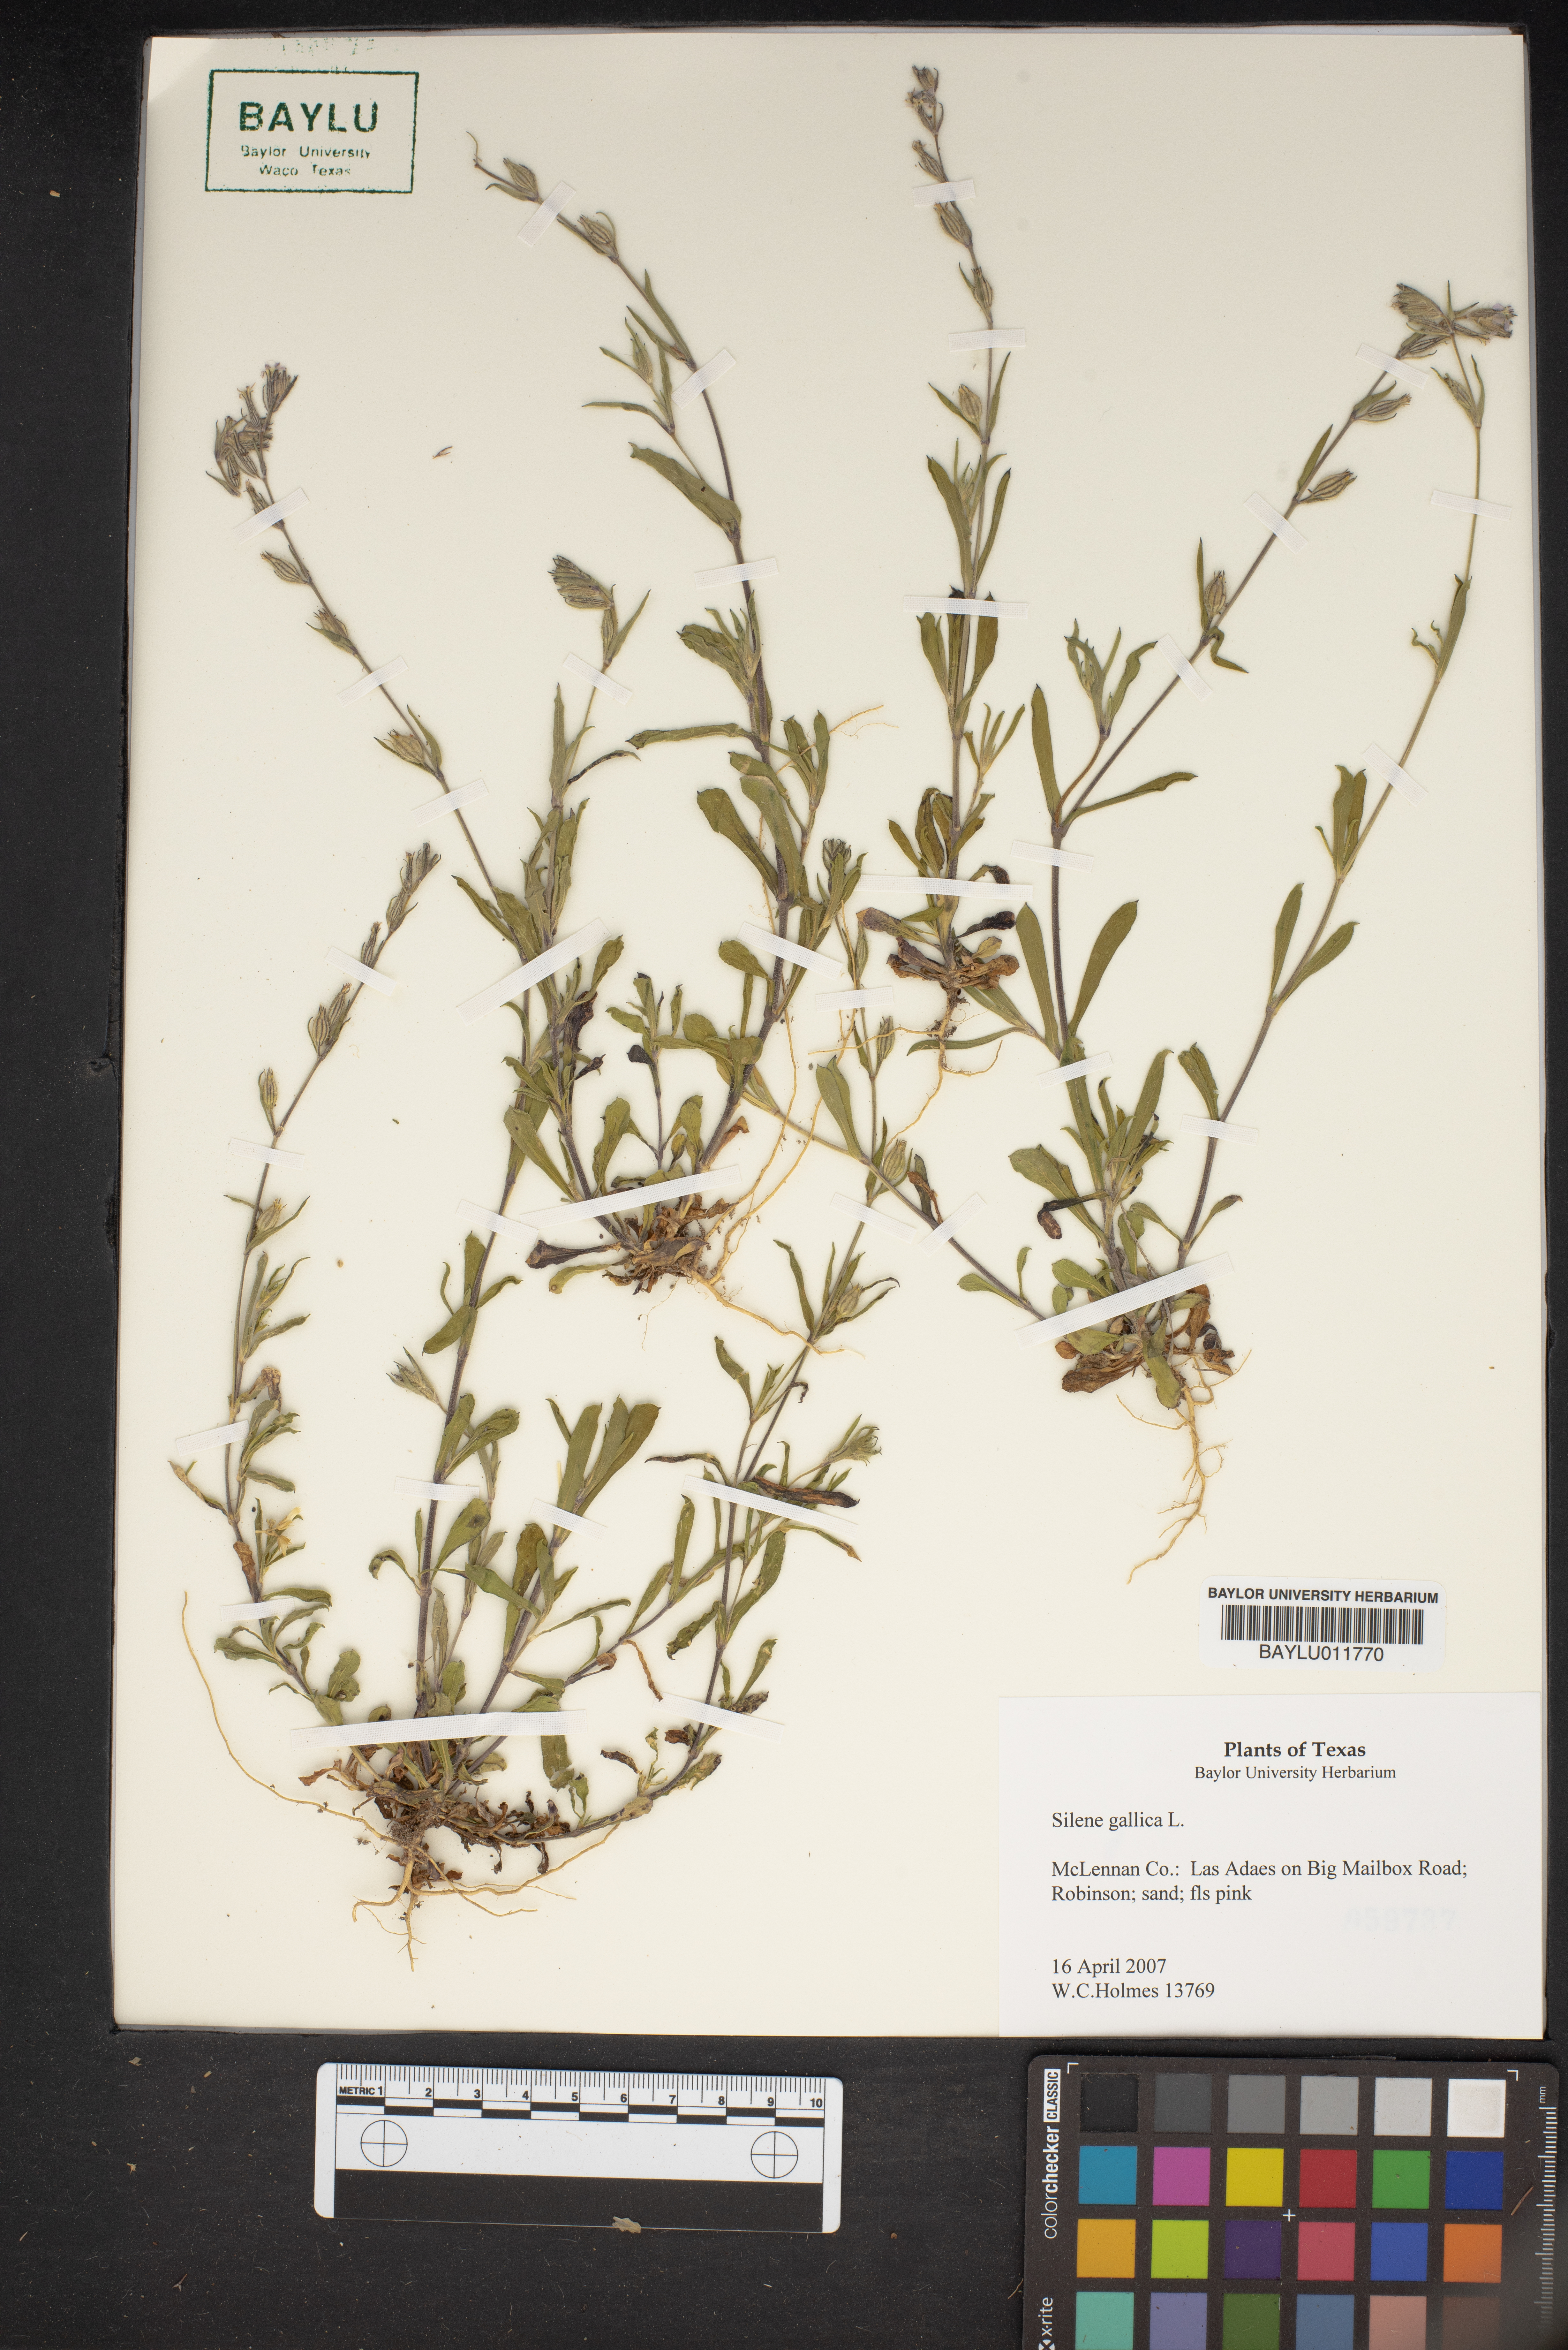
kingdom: Plantae
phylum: Tracheophyta
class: Magnoliopsida
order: Caryophyllales
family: Caryophyllaceae
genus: Silene
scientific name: Silene gallica
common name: Small-flowered catchfly
